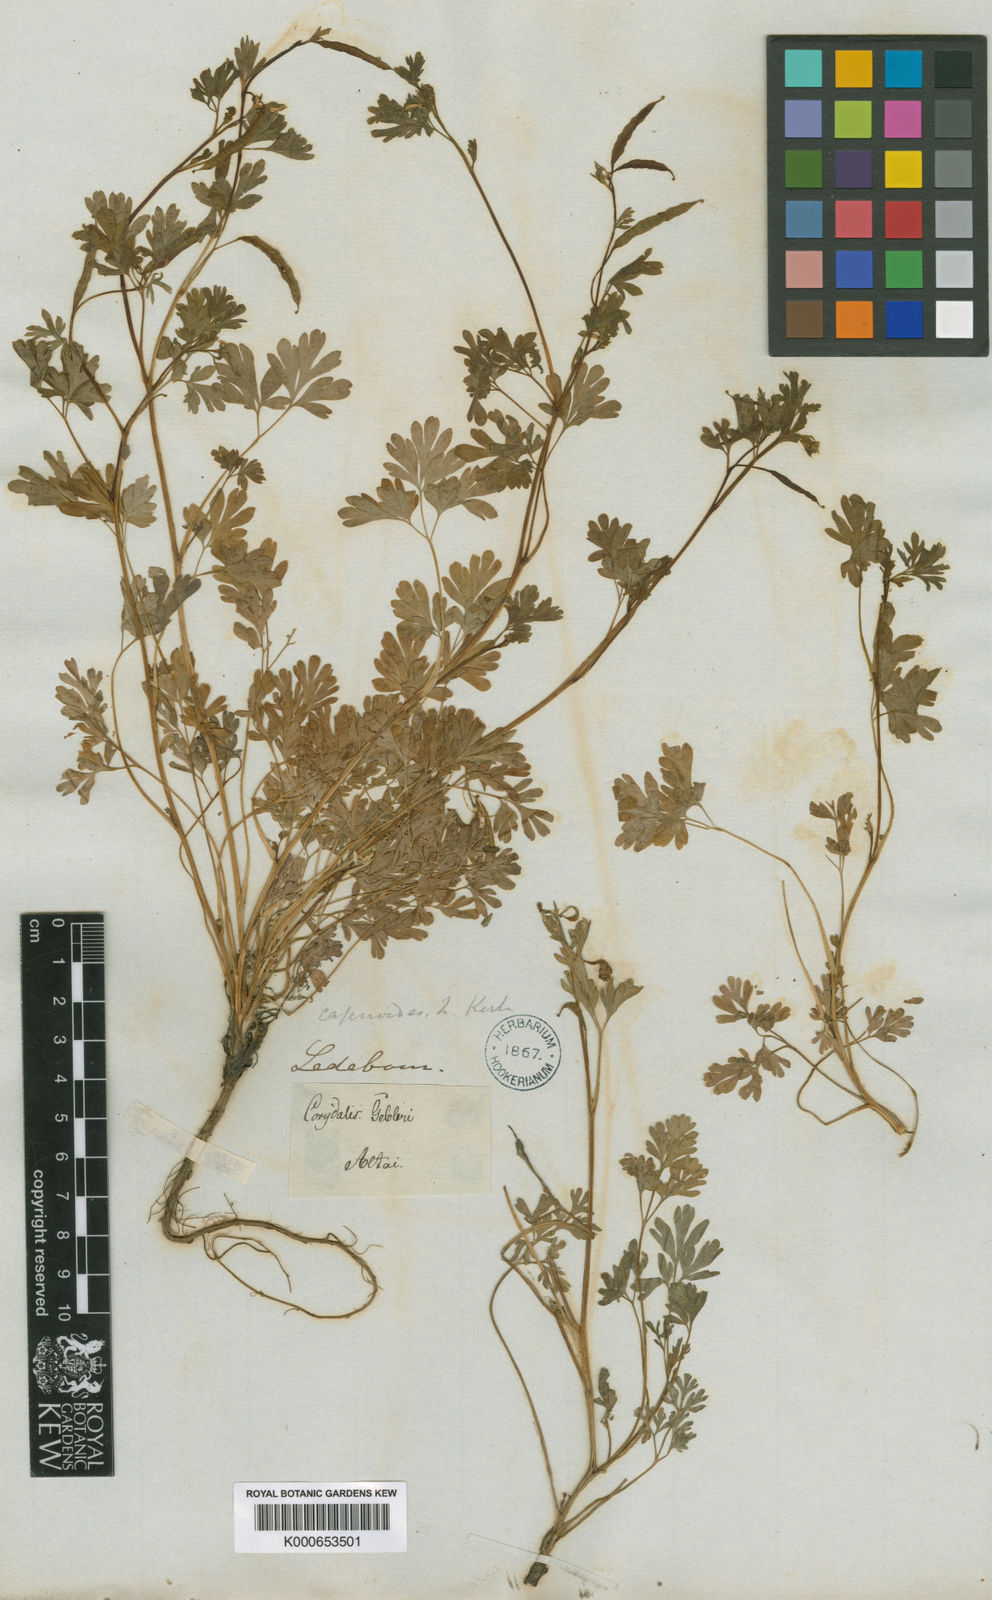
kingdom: Plantae
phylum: Tracheophyta
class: Magnoliopsida
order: Ranunculales
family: Papaveraceae
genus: Corydalis
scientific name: Corydalis capnoides
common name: Beaked corydalis
